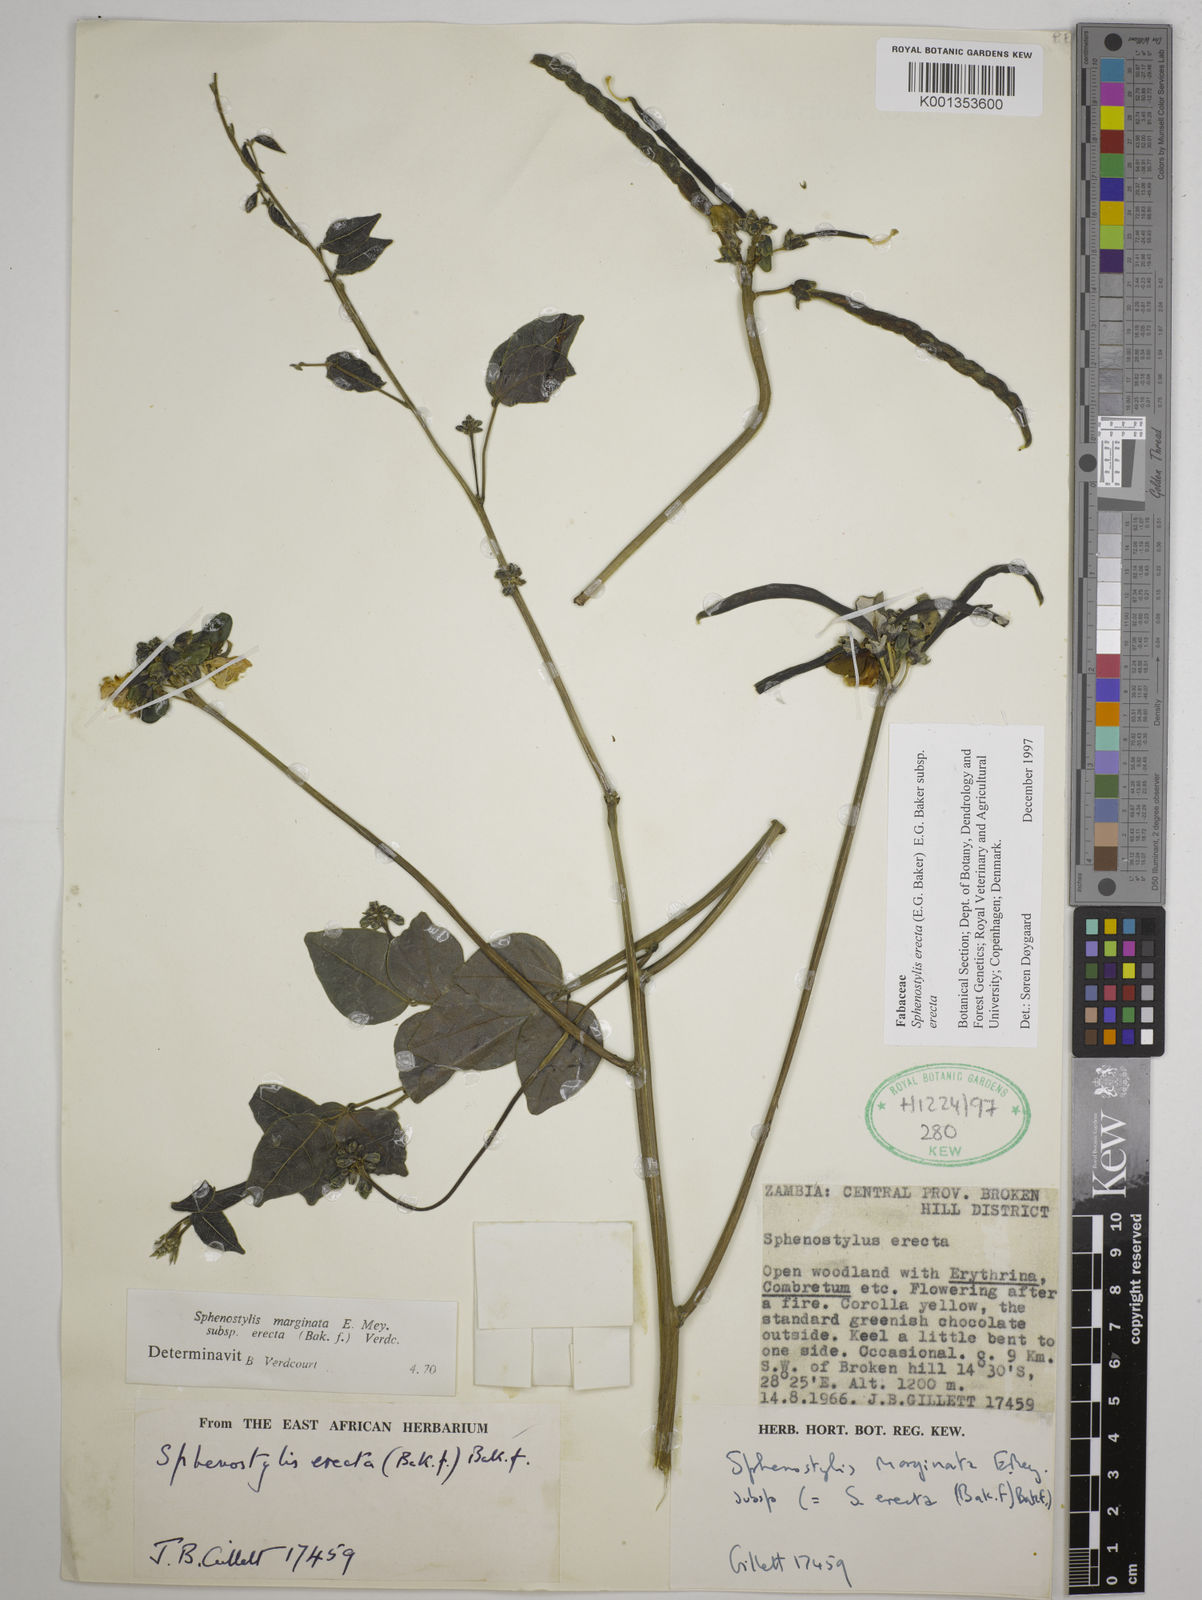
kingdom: Plantae
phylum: Tracheophyta
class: Magnoliopsida
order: Fabales
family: Fabaceae
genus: Sphenostylis
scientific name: Sphenostylis erecta
